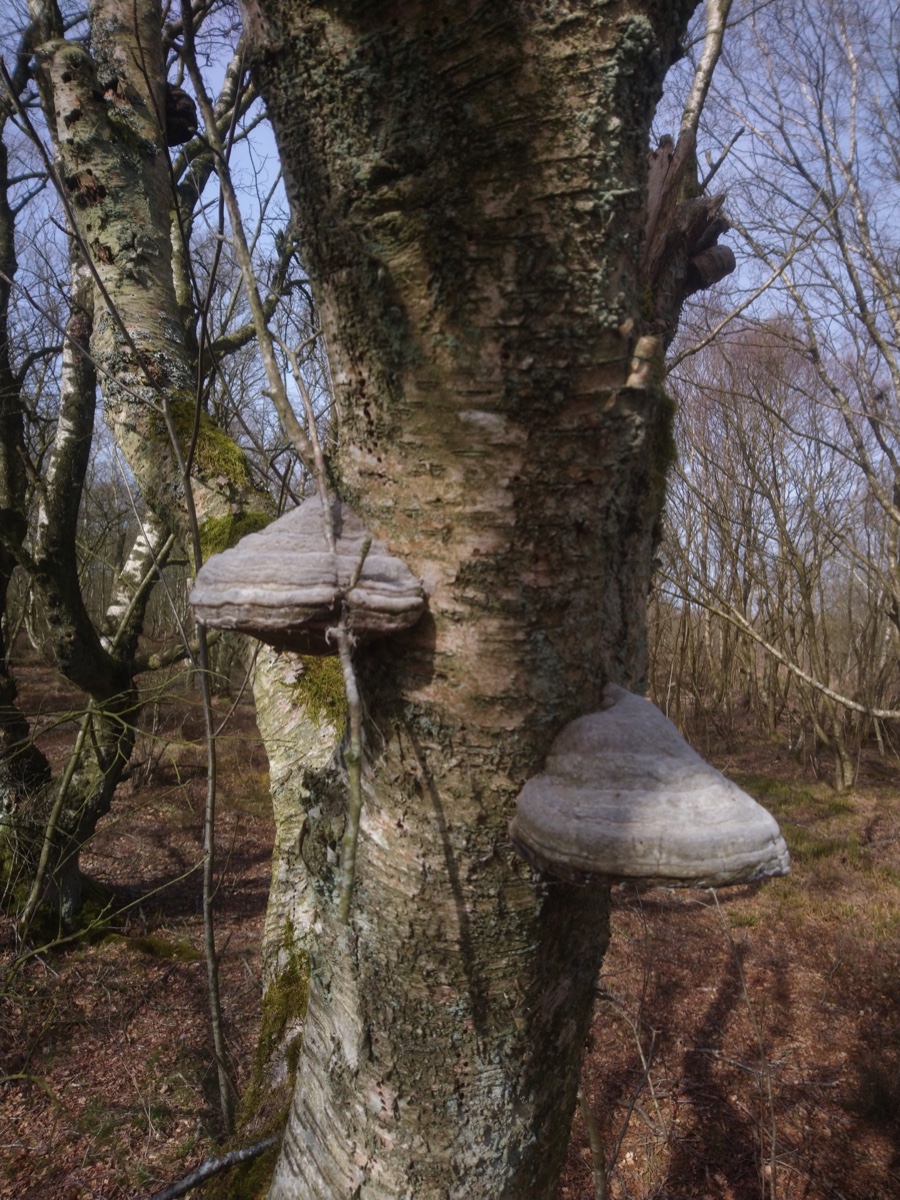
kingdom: Fungi
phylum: Basidiomycota
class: Agaricomycetes
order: Polyporales
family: Polyporaceae
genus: Fomes
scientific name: Fomes fomentarius
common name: tøndersvamp
